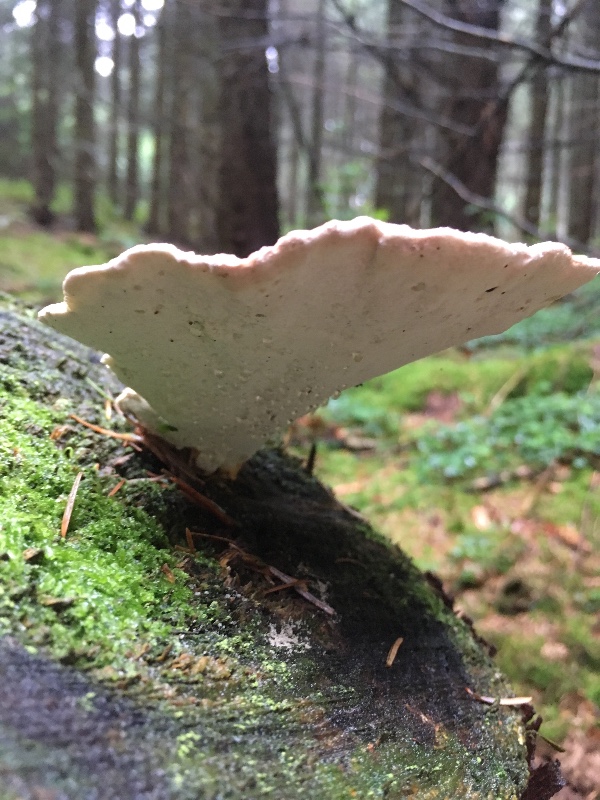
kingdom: Fungi
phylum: Basidiomycota
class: Agaricomycetes
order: Polyporales
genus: Calcipostia
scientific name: Calcipostia guttulata
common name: dråbe-kødporesvamp
